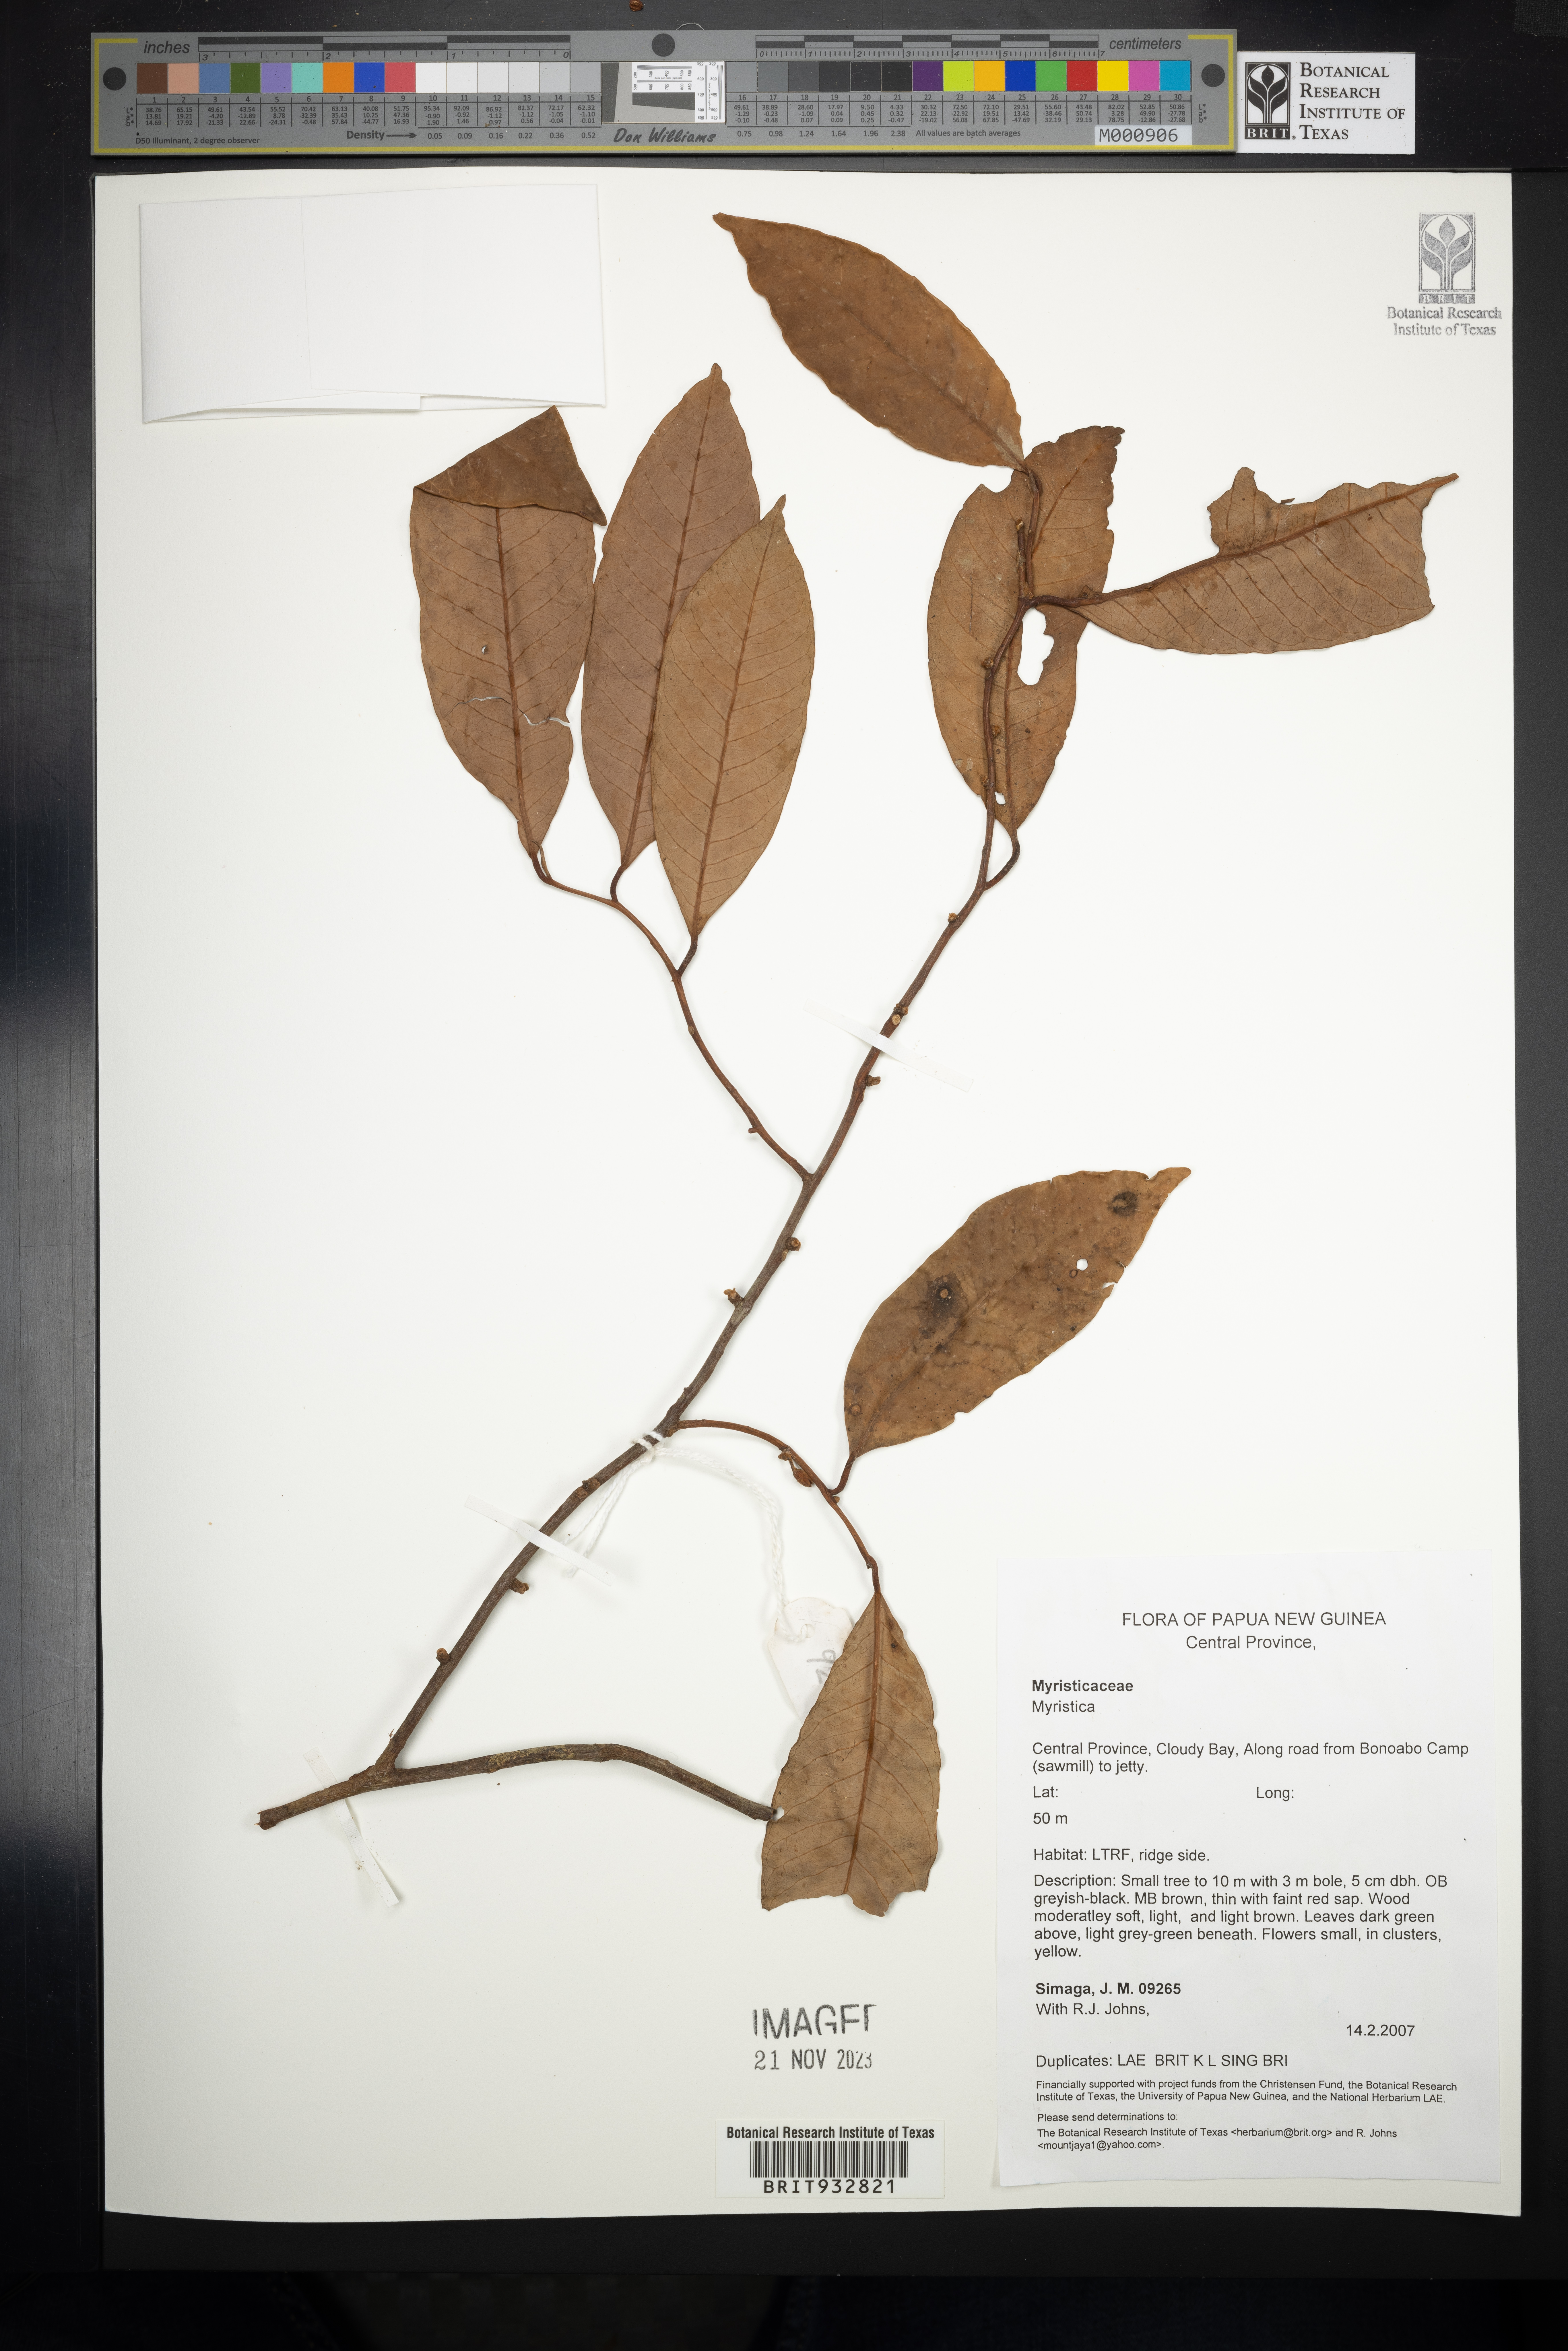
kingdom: Plantae
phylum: Tracheophyta
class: Magnoliopsida
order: Magnoliales
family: Myristicaceae
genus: Myristica
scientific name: Myristica
